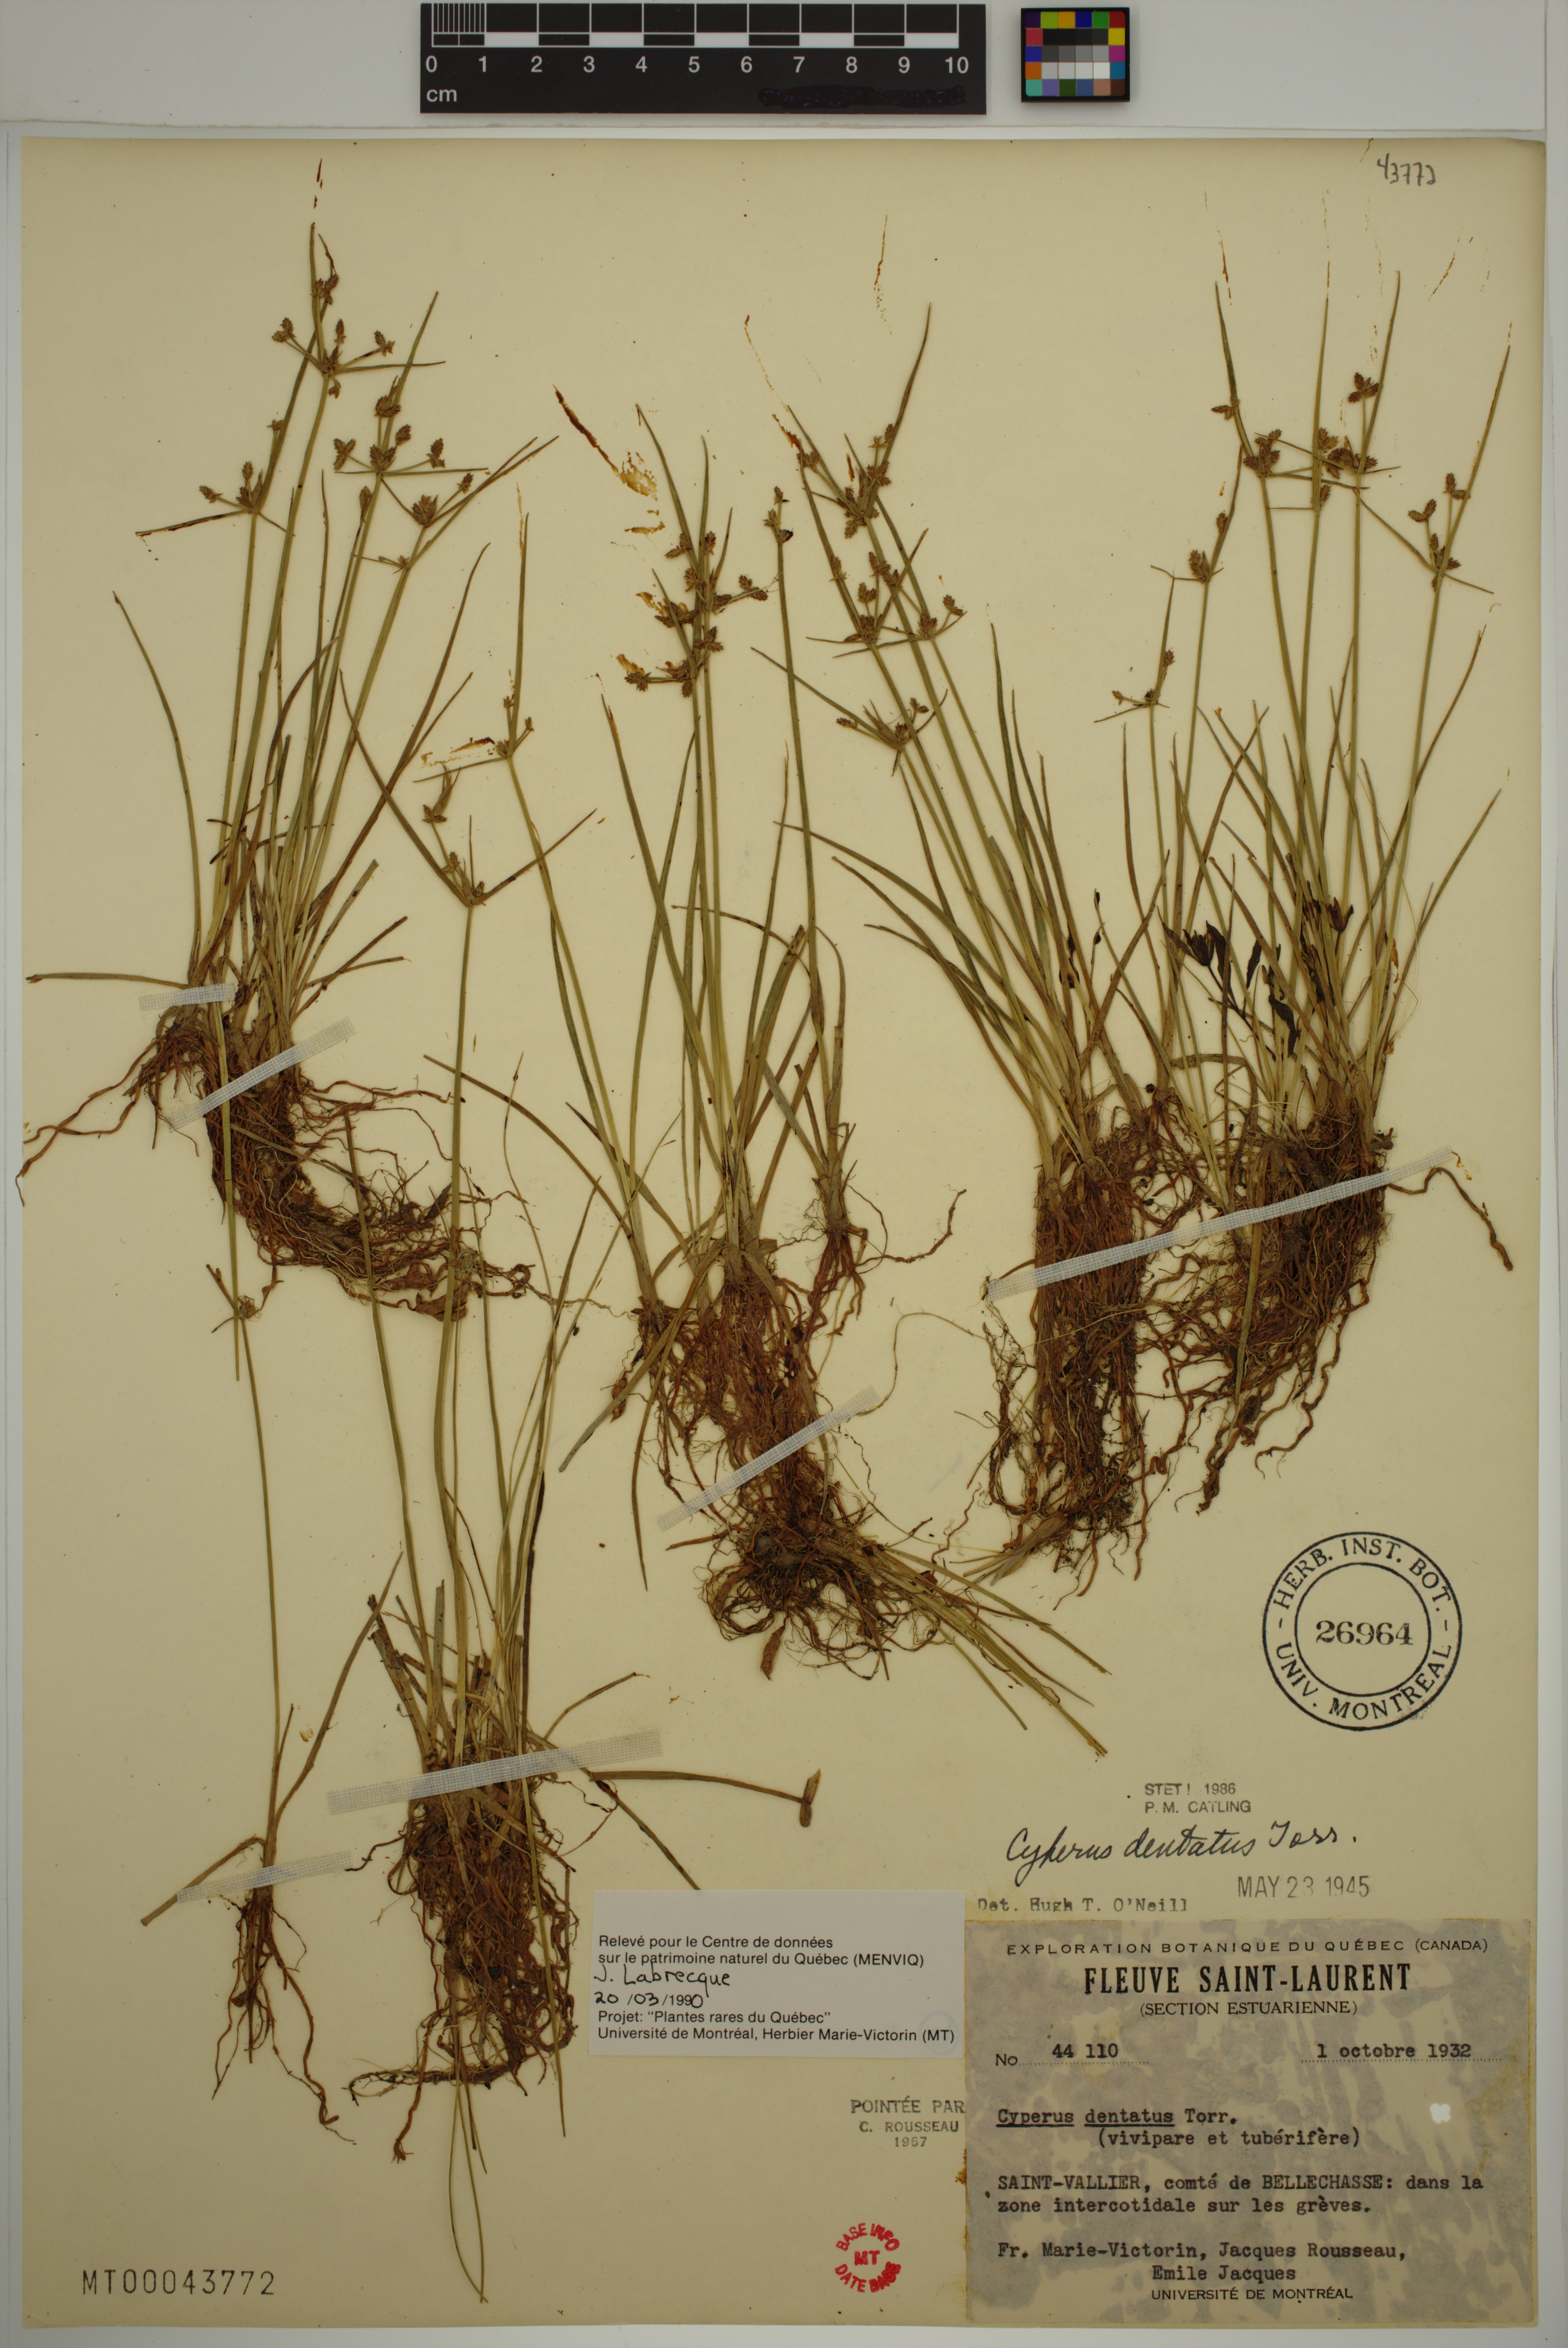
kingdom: Plantae
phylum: Tracheophyta
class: Liliopsida
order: Poales
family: Cyperaceae
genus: Cyperus
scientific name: Cyperus dentatus
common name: Dentate umbrella sedge
